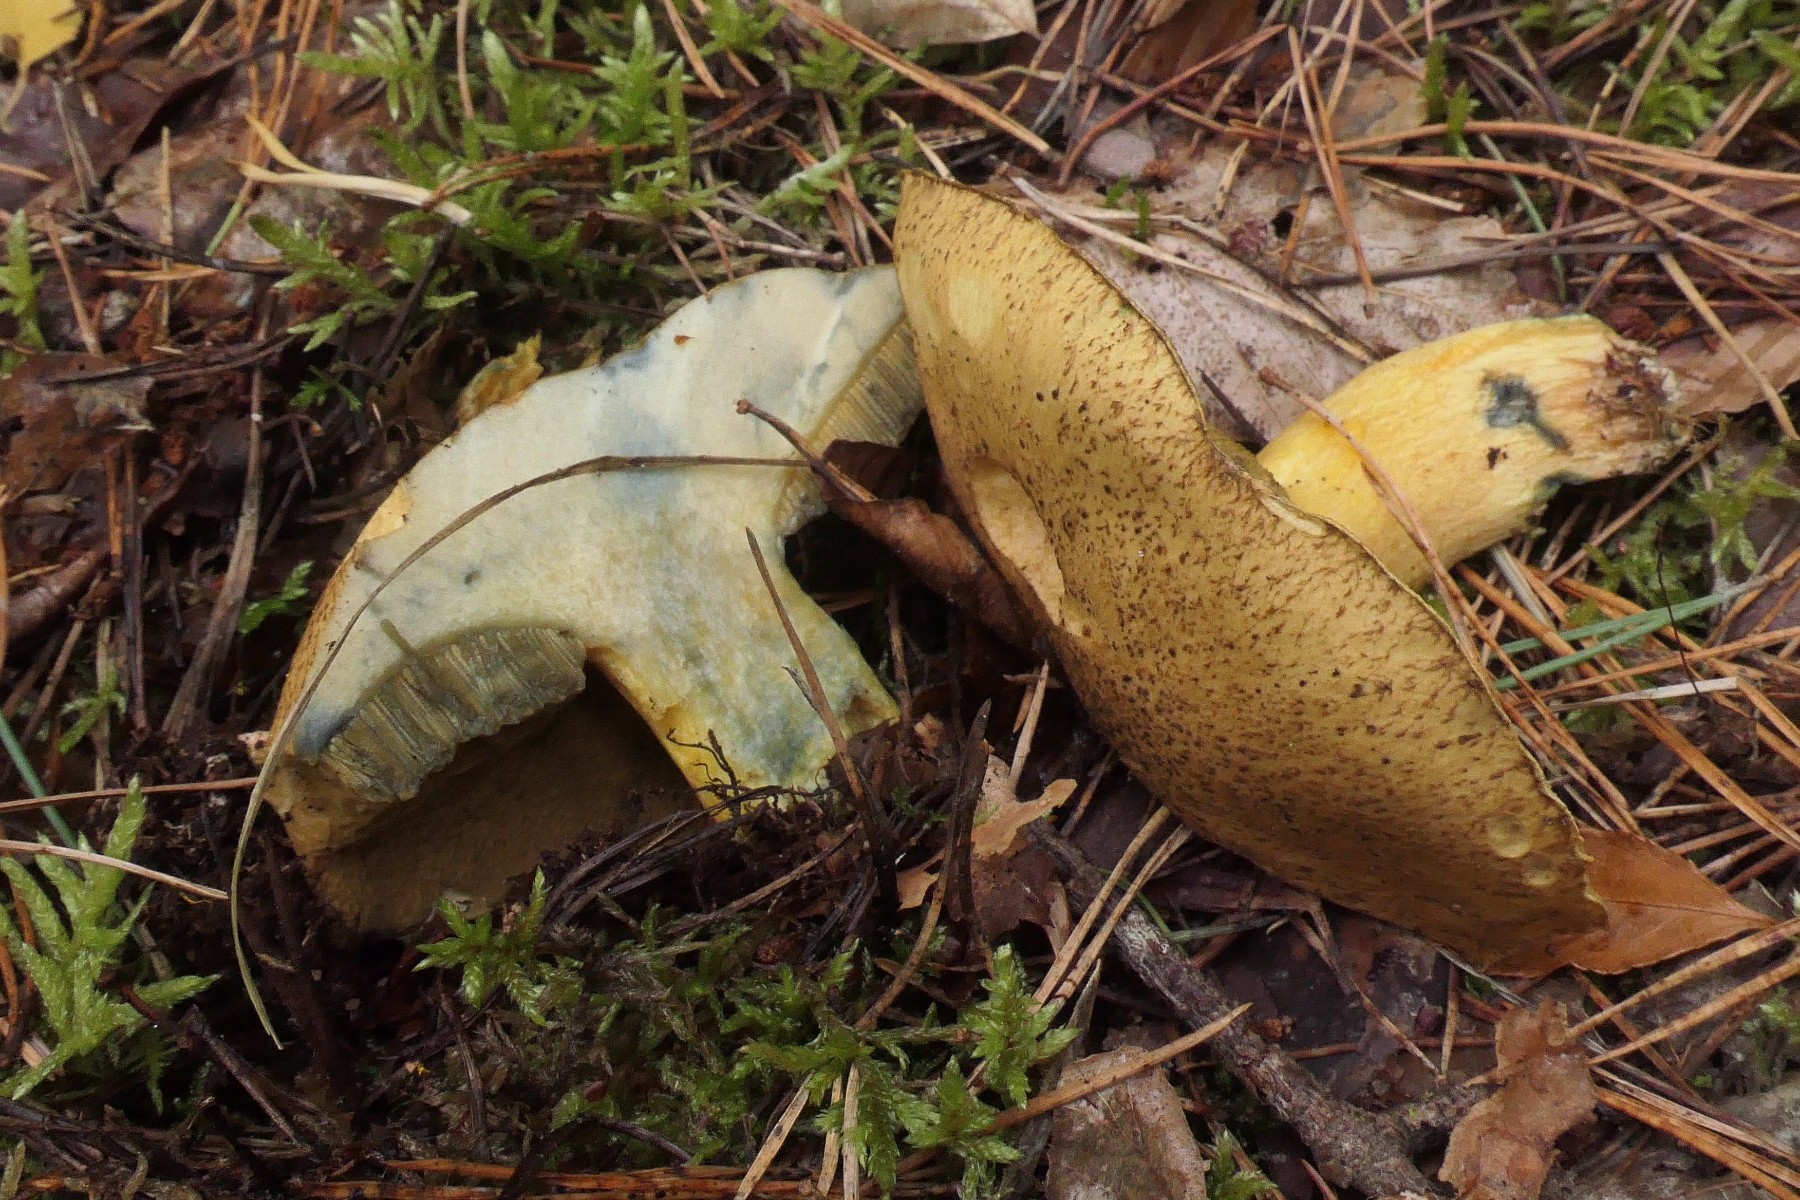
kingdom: Fungi
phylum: Basidiomycota
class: Agaricomycetes
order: Boletales
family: Suillaceae
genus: Suillus
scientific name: Suillus variegatus
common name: broget slimrørhat
